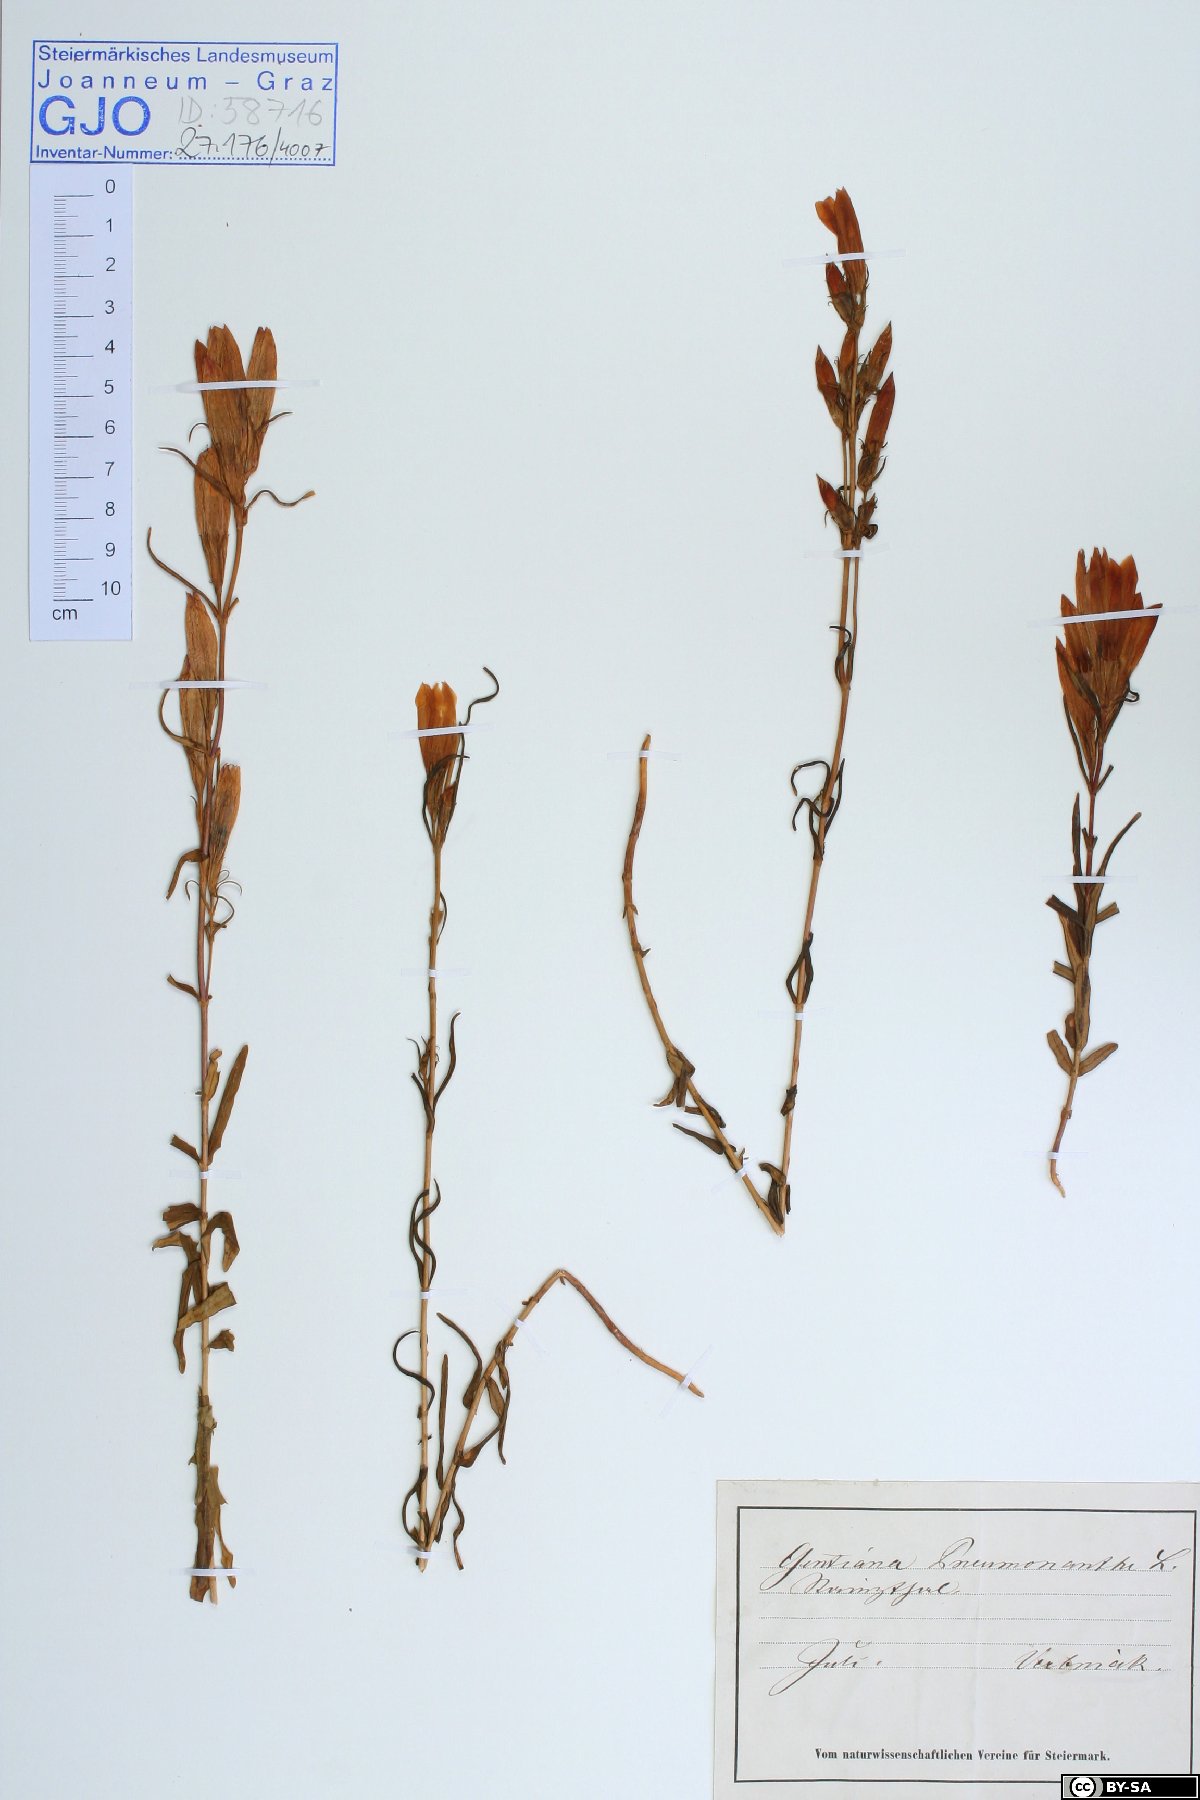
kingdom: Plantae
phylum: Tracheophyta
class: Magnoliopsida
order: Gentianales
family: Gentianaceae
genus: Gentiana
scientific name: Gentiana pneumonanthe
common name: Marsh gentian
